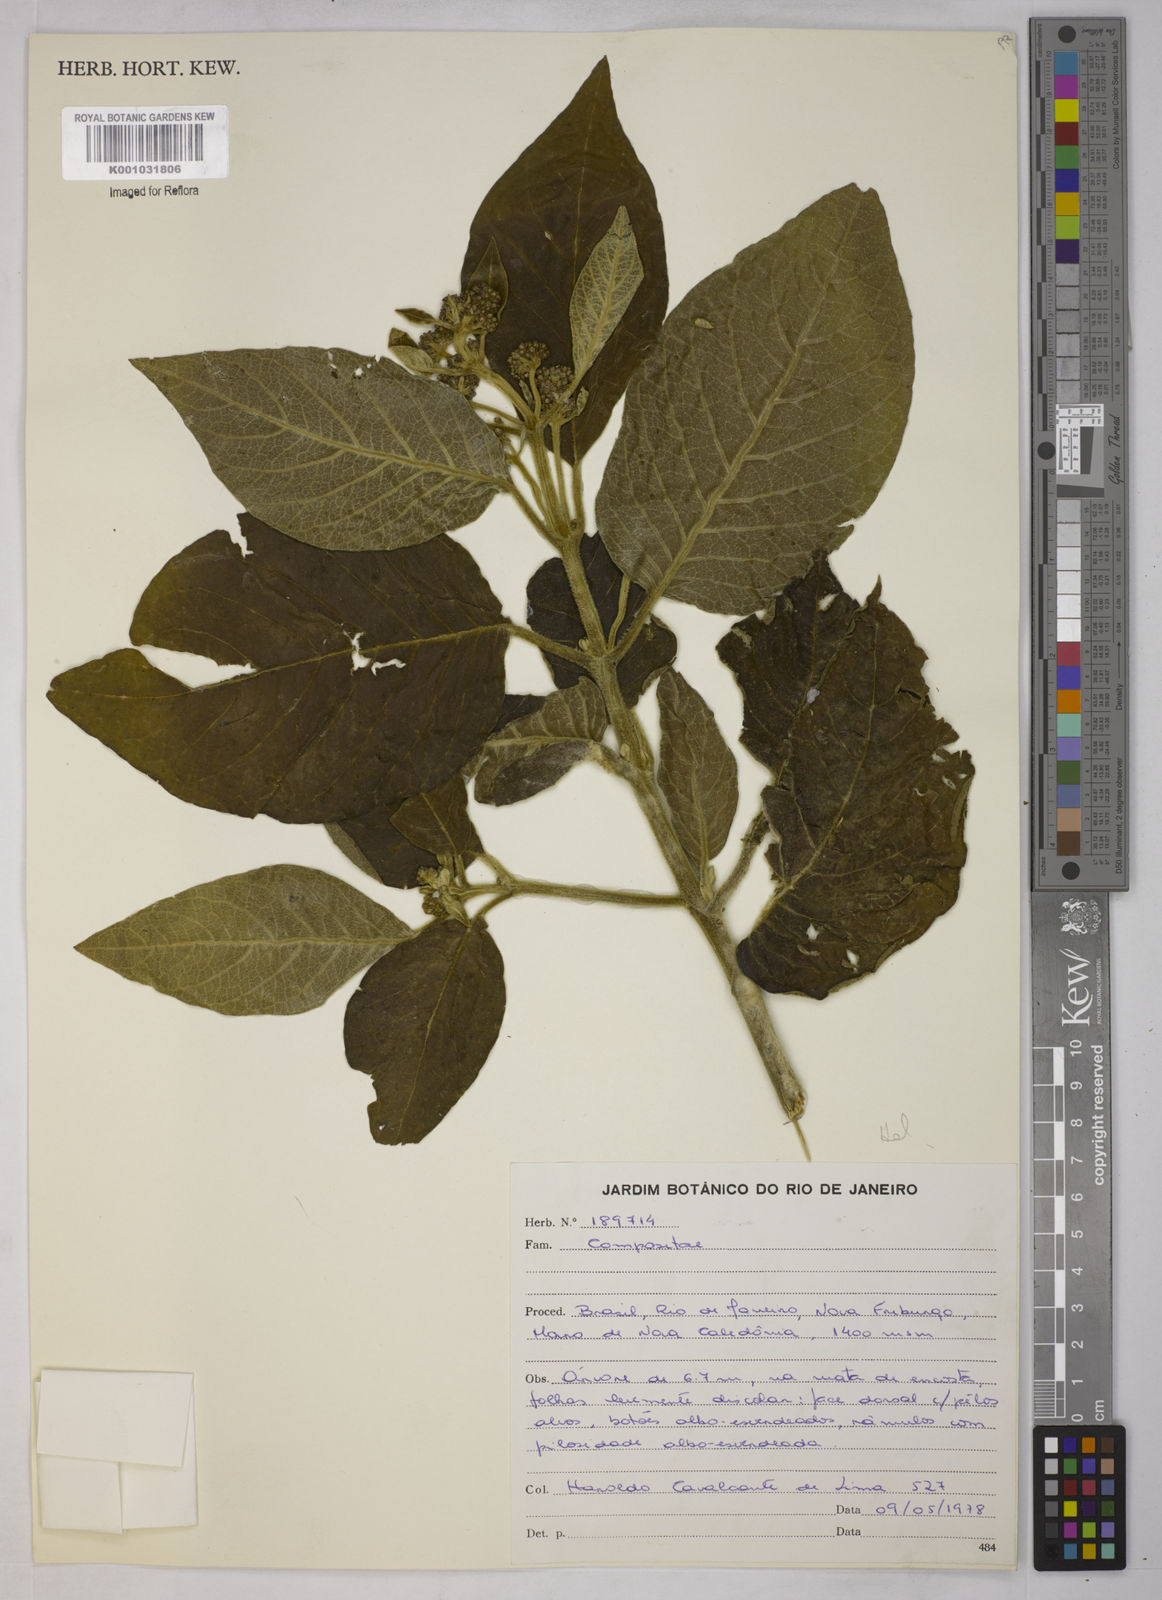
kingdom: Plantae
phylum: Tracheophyta
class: Magnoliopsida
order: Asterales
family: Asteraceae
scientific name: Asteraceae
